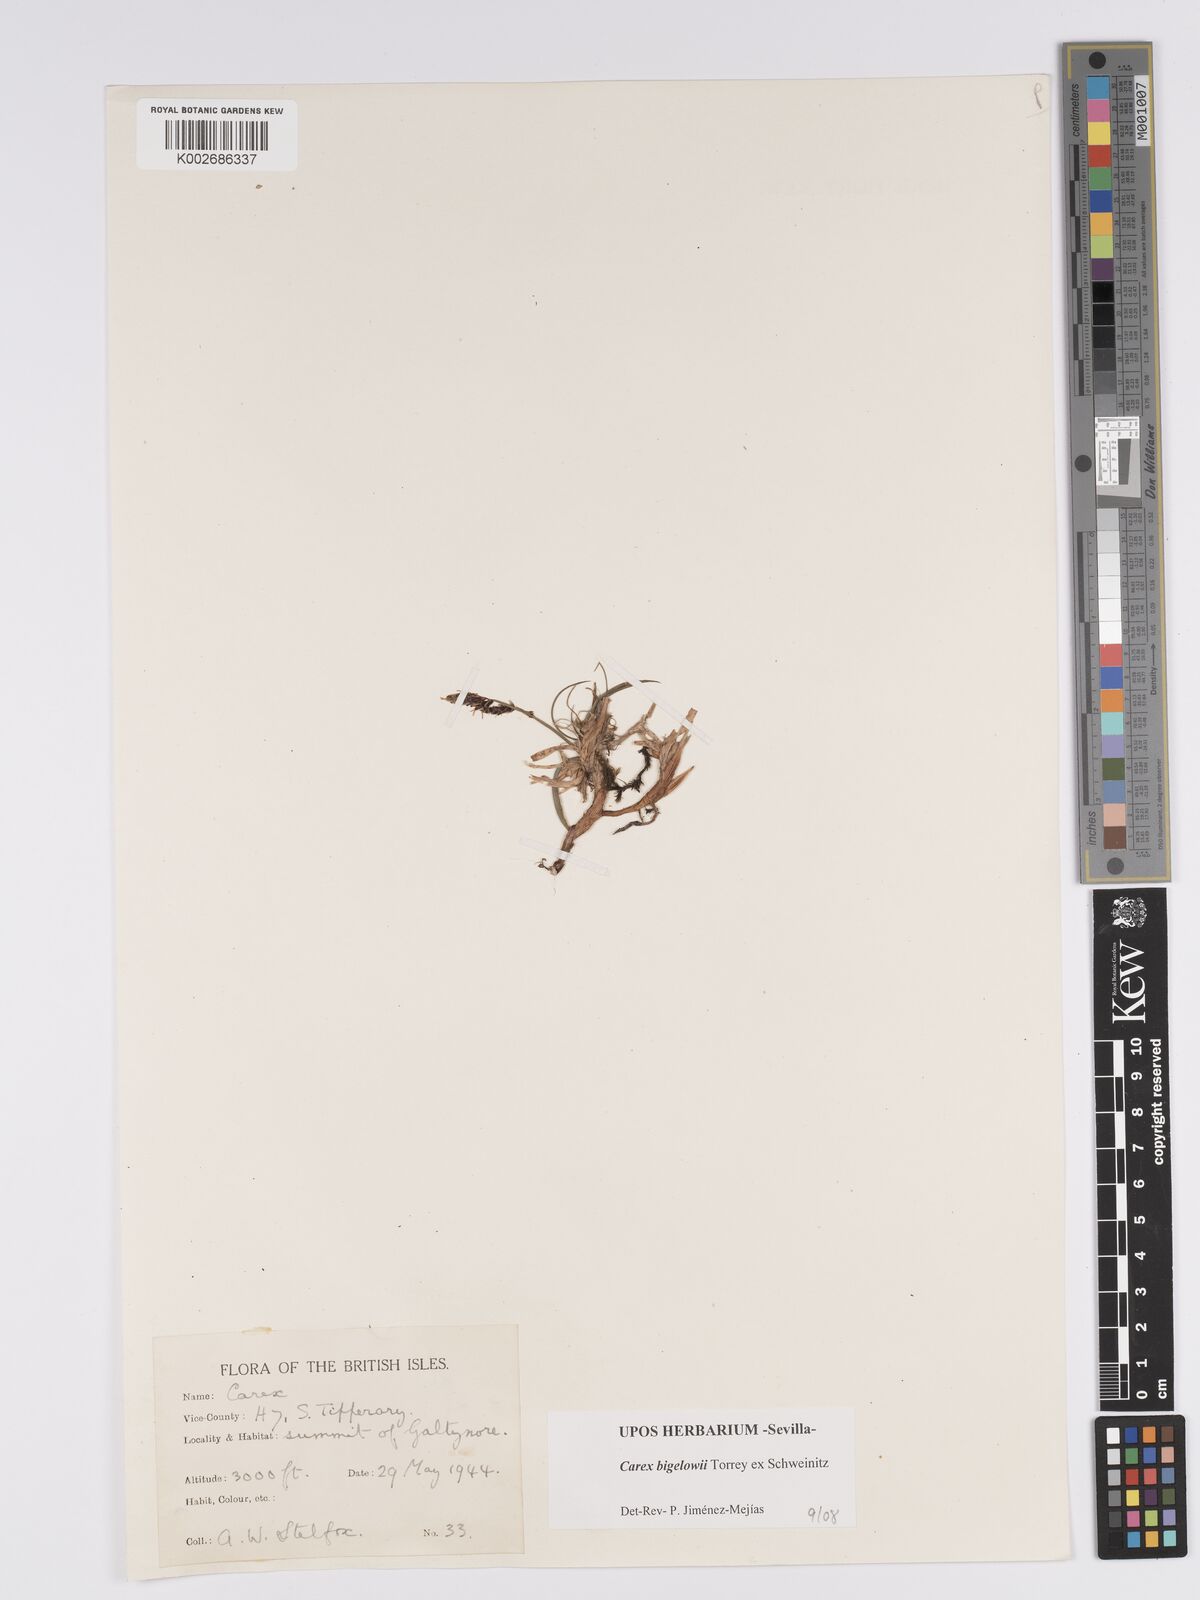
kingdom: Plantae
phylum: Tracheophyta
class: Liliopsida
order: Poales
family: Cyperaceae
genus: Carex
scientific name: Carex bigelowii
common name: Stiff sedge
